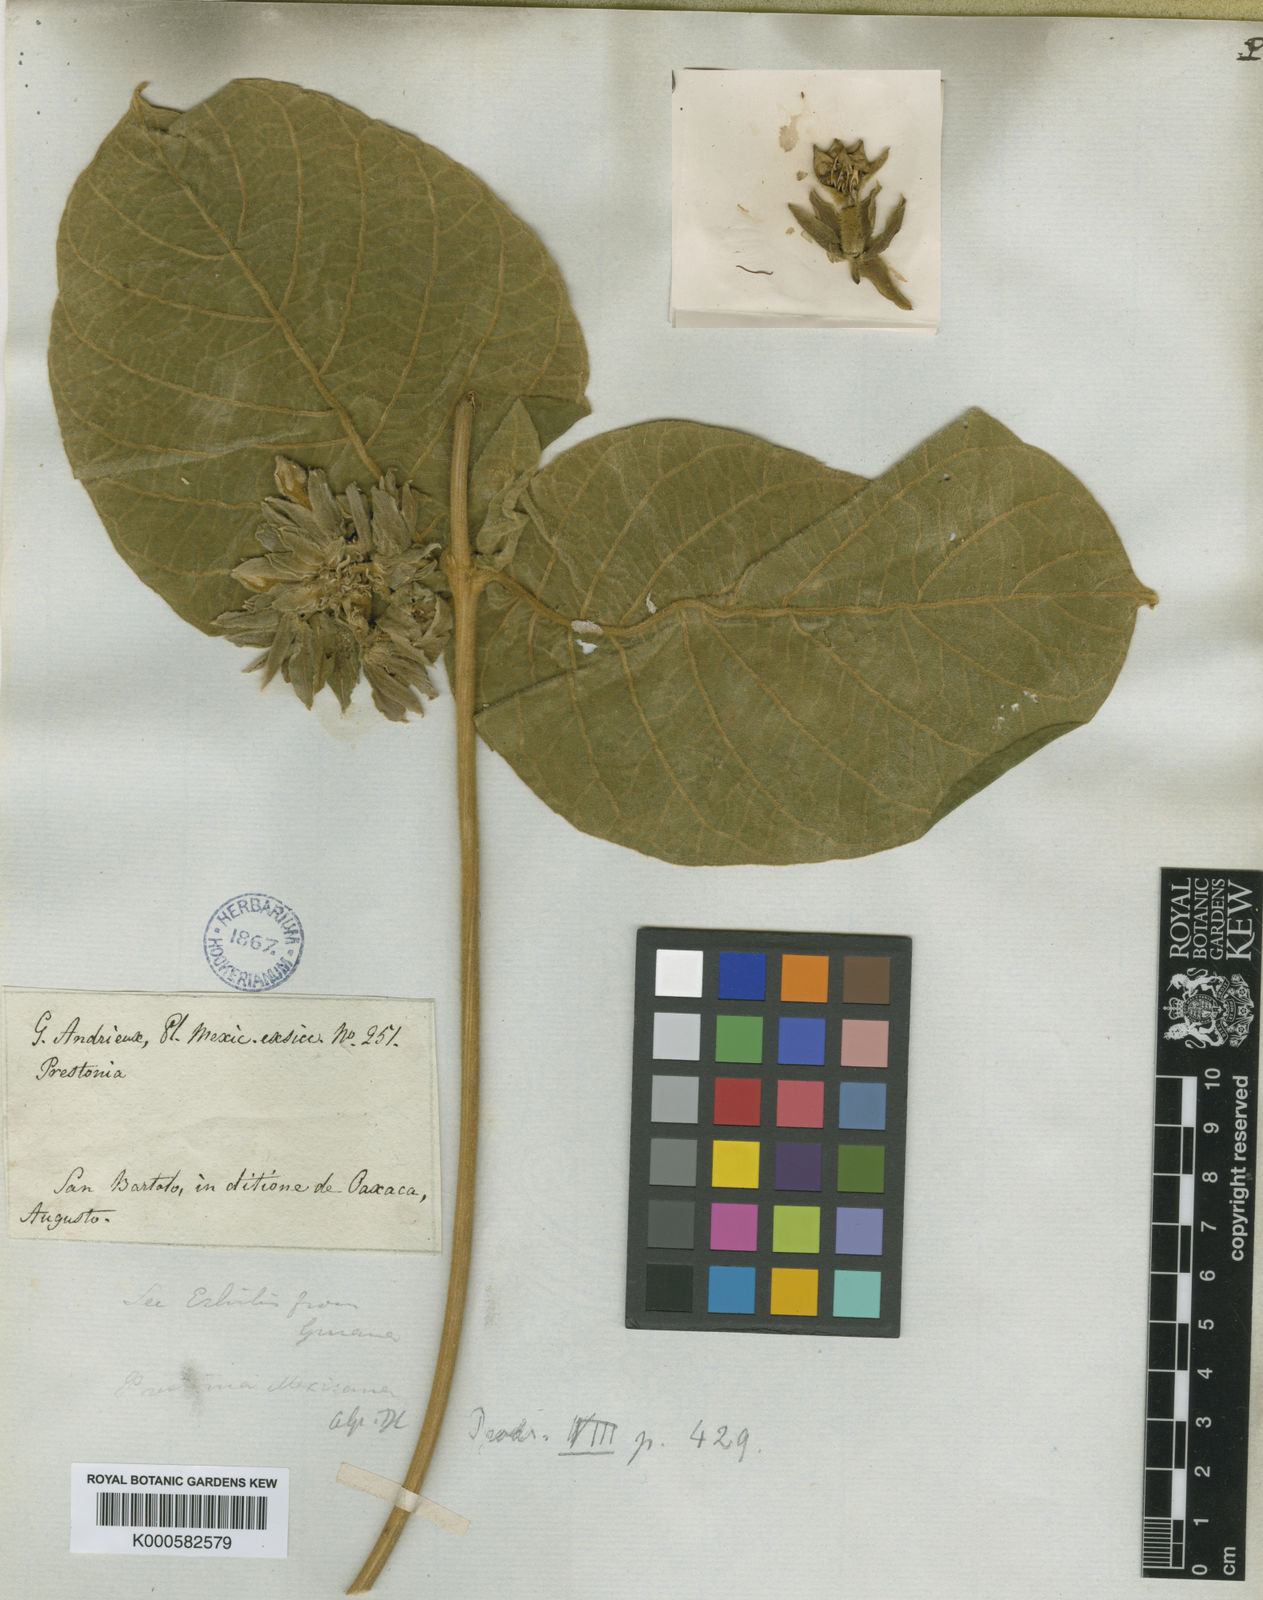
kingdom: Plantae
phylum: Tracheophyta
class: Magnoliopsida
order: Gentianales
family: Apocynaceae
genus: Prestonia
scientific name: Prestonia mexicana
